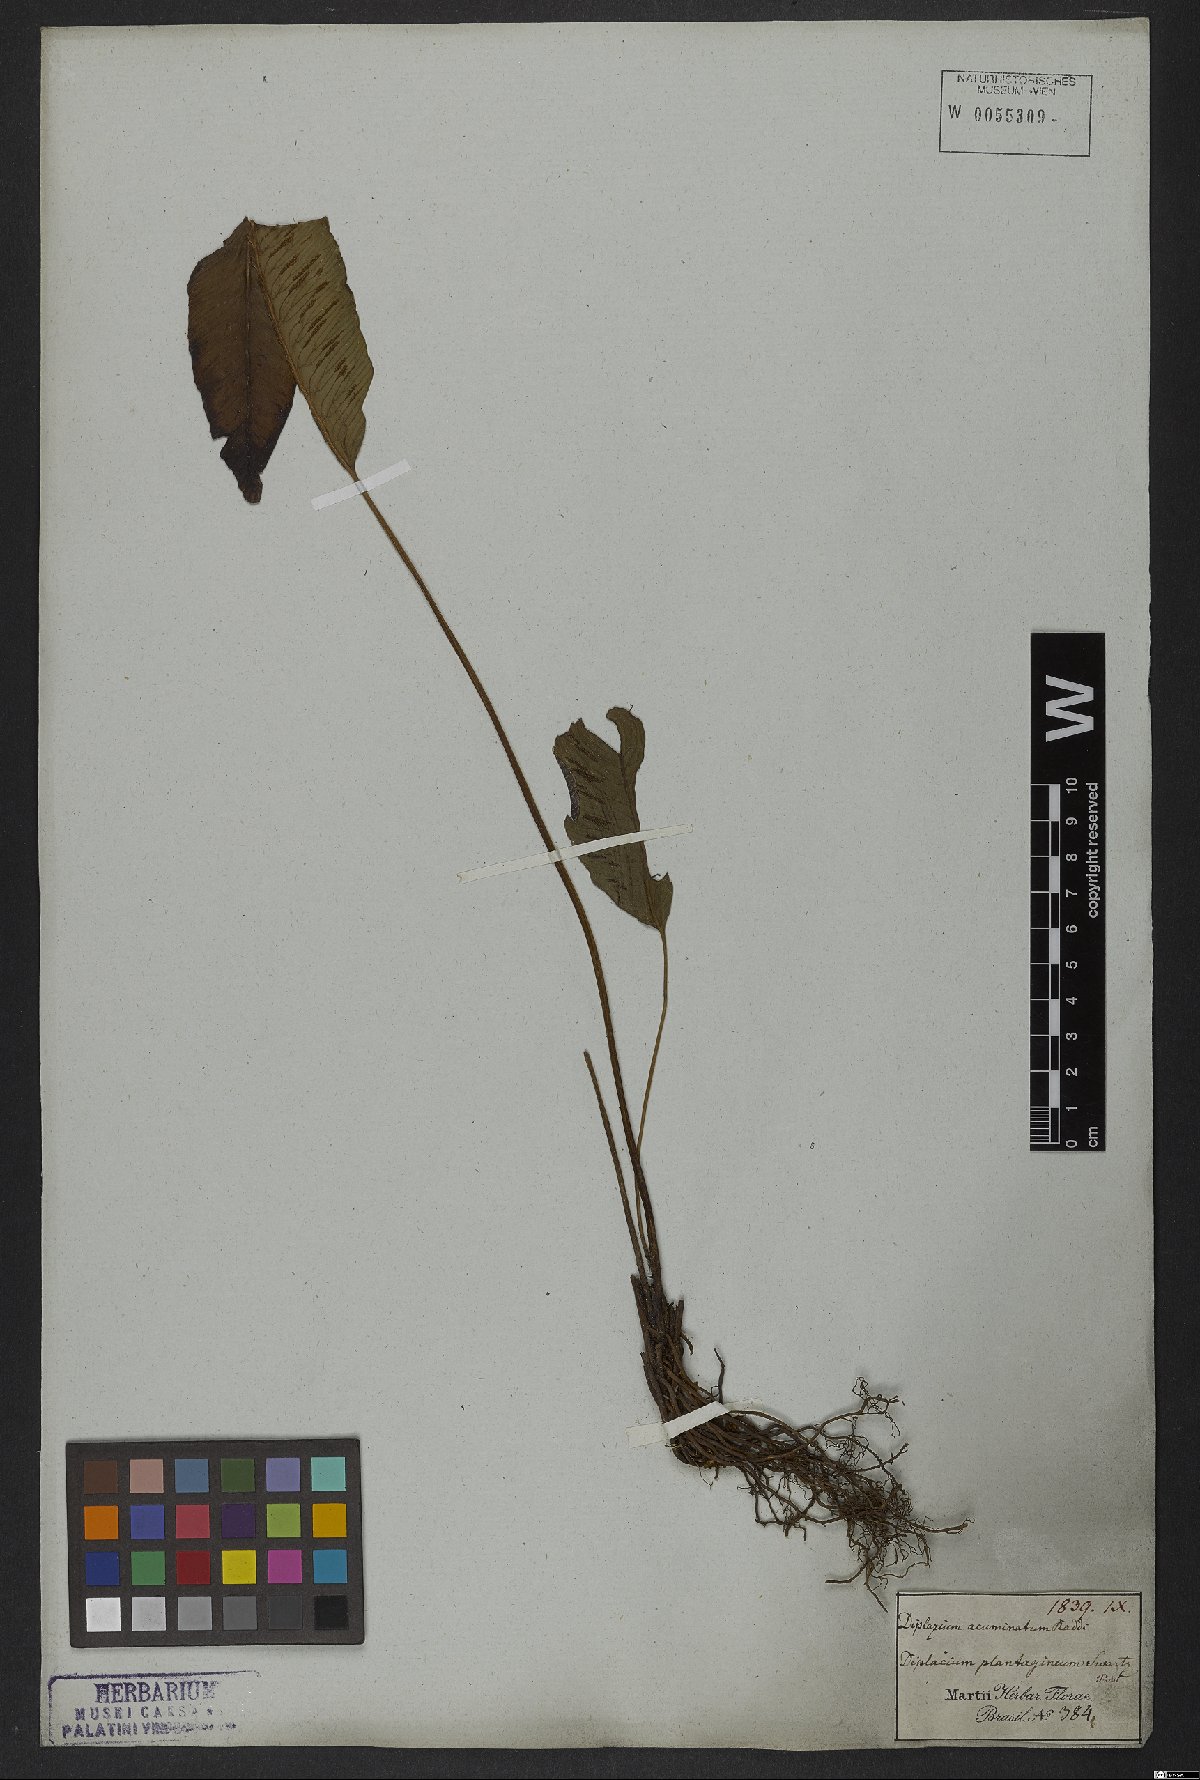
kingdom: Plantae
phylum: Tracheophyta
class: Polypodiopsida
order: Polypodiales
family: Athyriaceae
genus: Diplazium
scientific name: Diplazium plantaginifolium
